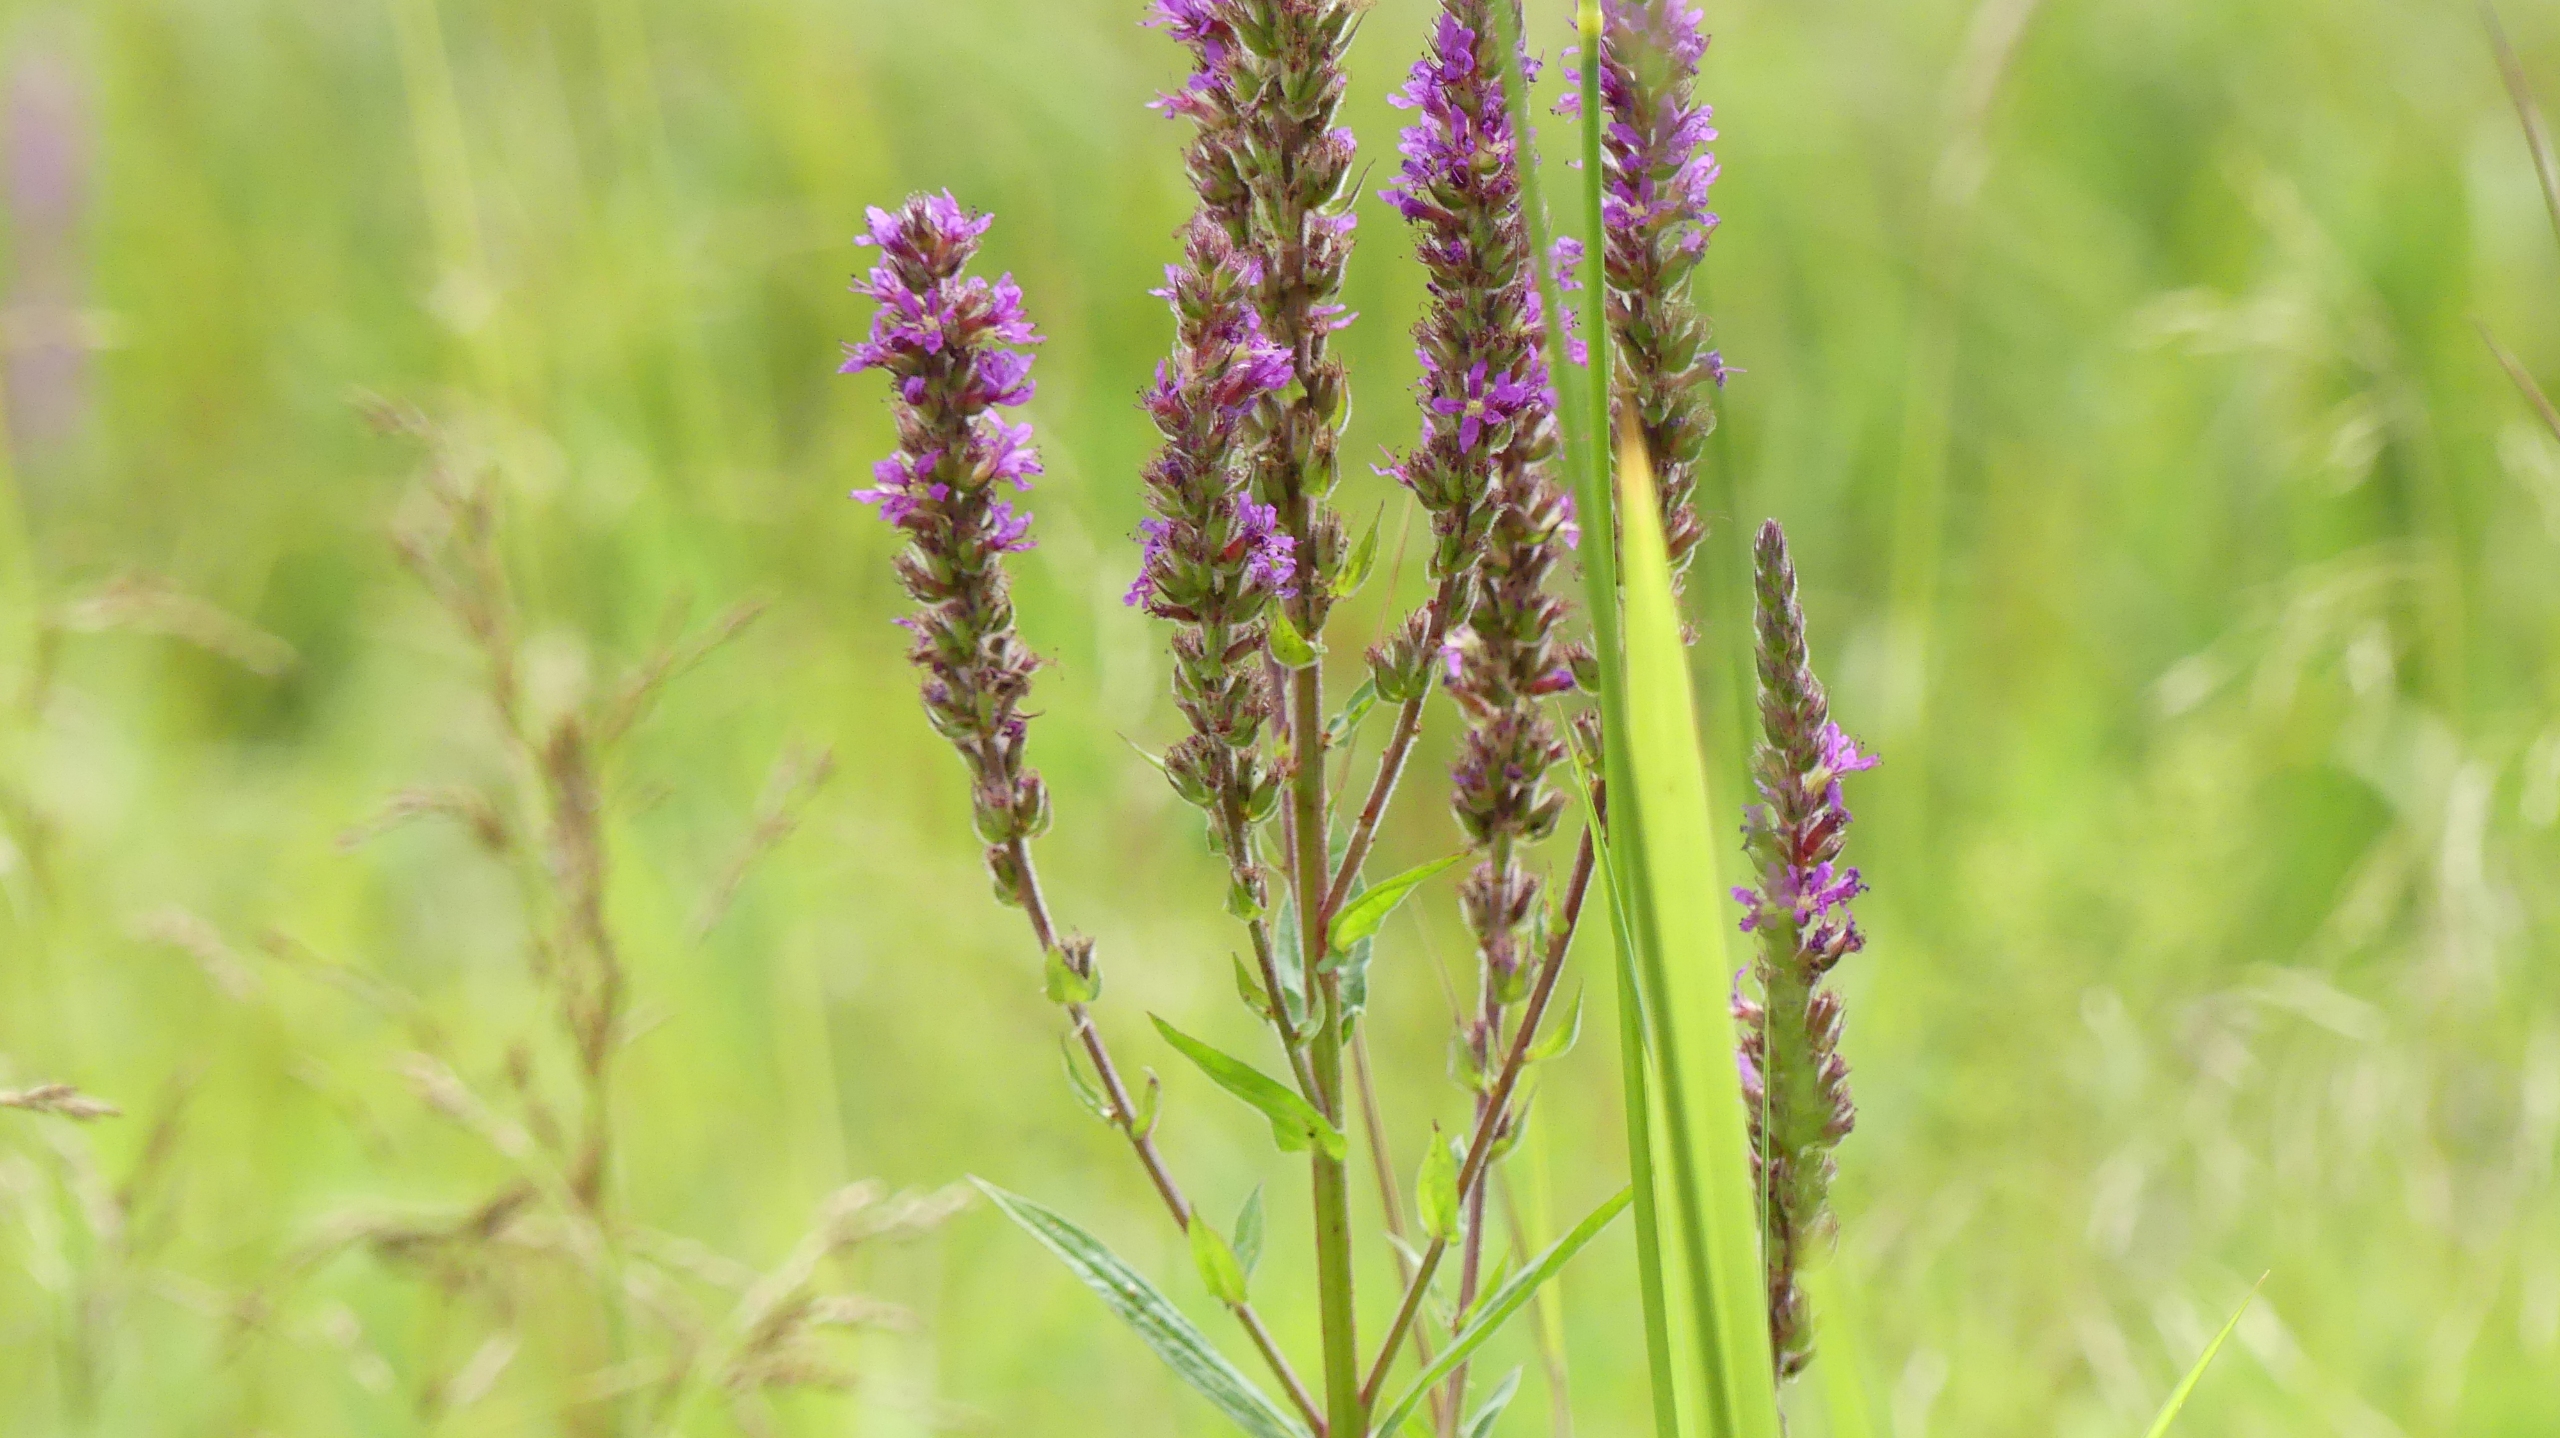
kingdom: Plantae
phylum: Tracheophyta
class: Magnoliopsida
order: Myrtales
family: Lythraceae
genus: Lythrum
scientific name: Lythrum salicaria
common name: Kattehale
